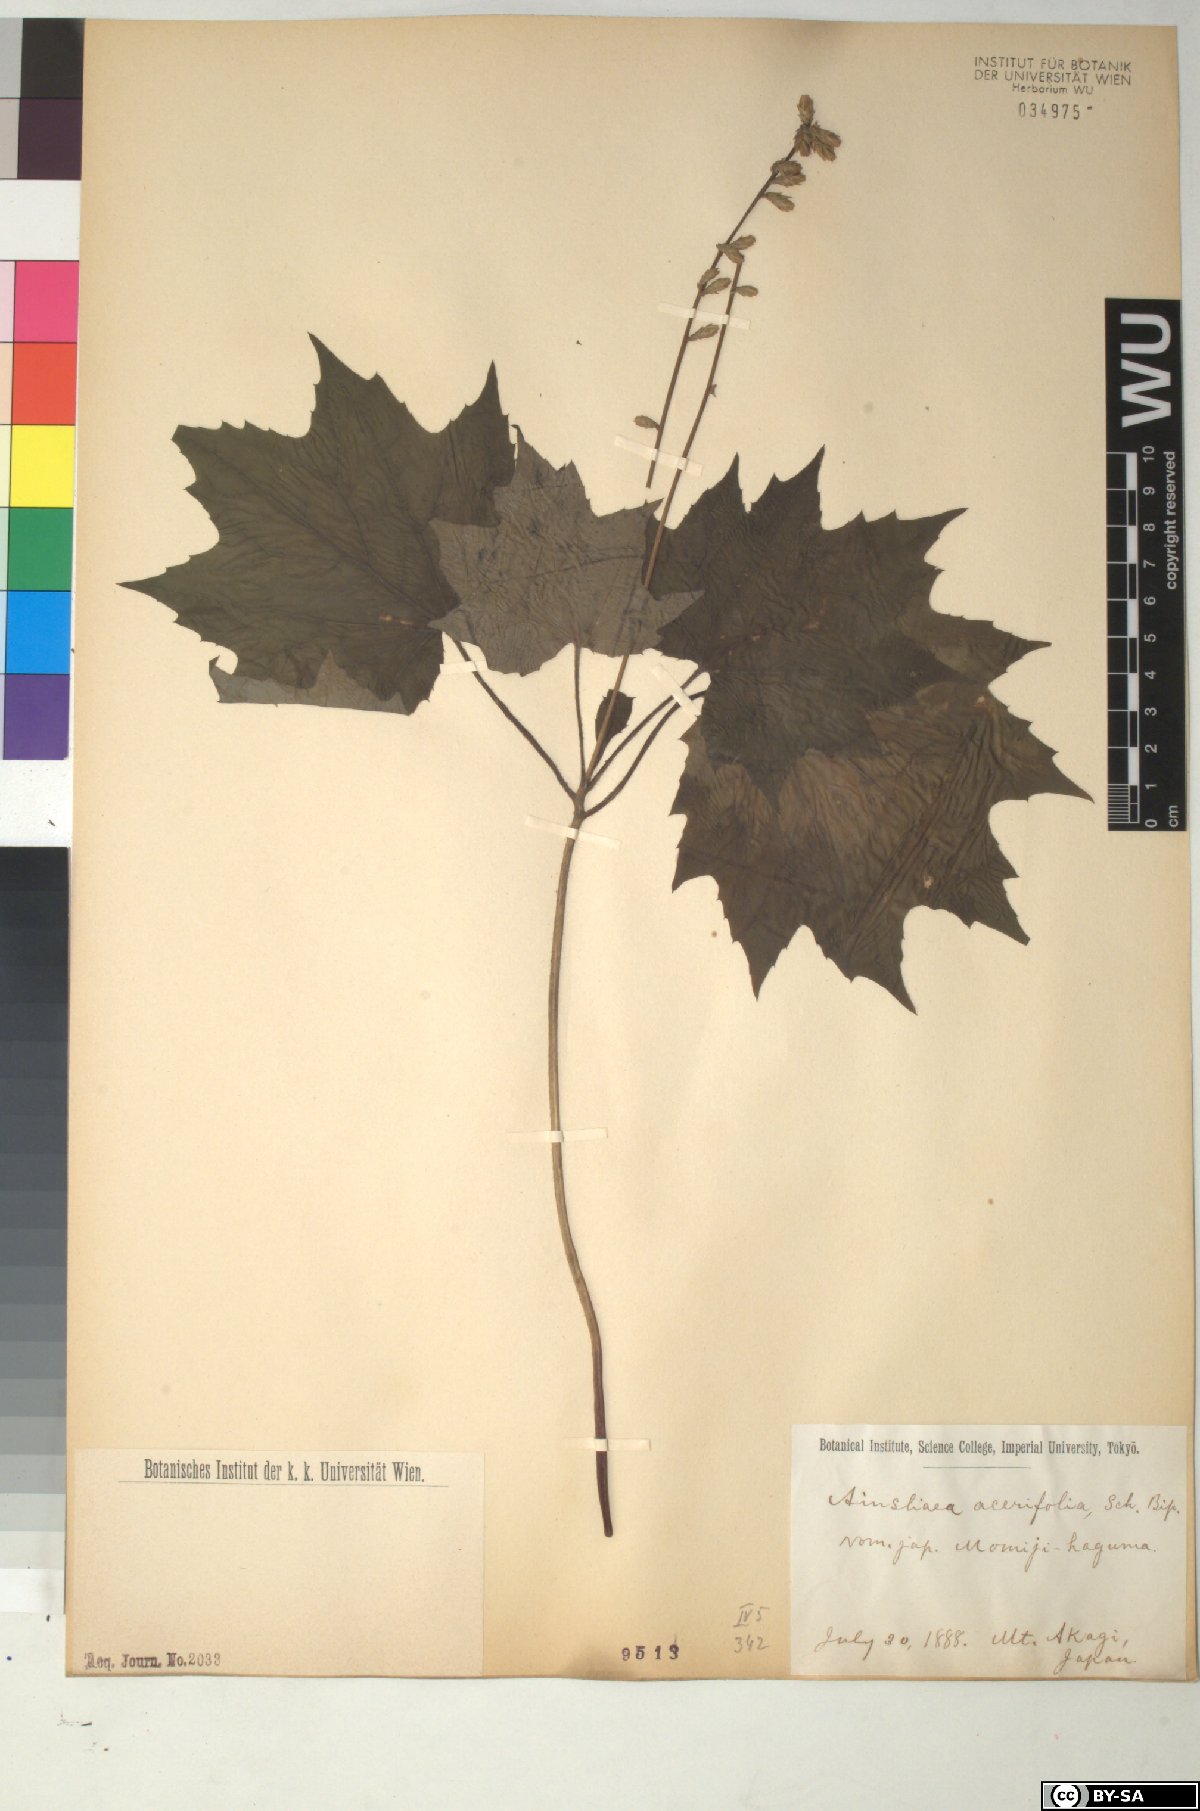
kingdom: Plantae
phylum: Tracheophyta
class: Magnoliopsida
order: Asterales
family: Asteraceae
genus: Ainsliaea
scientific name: Ainsliaea acerifolia
